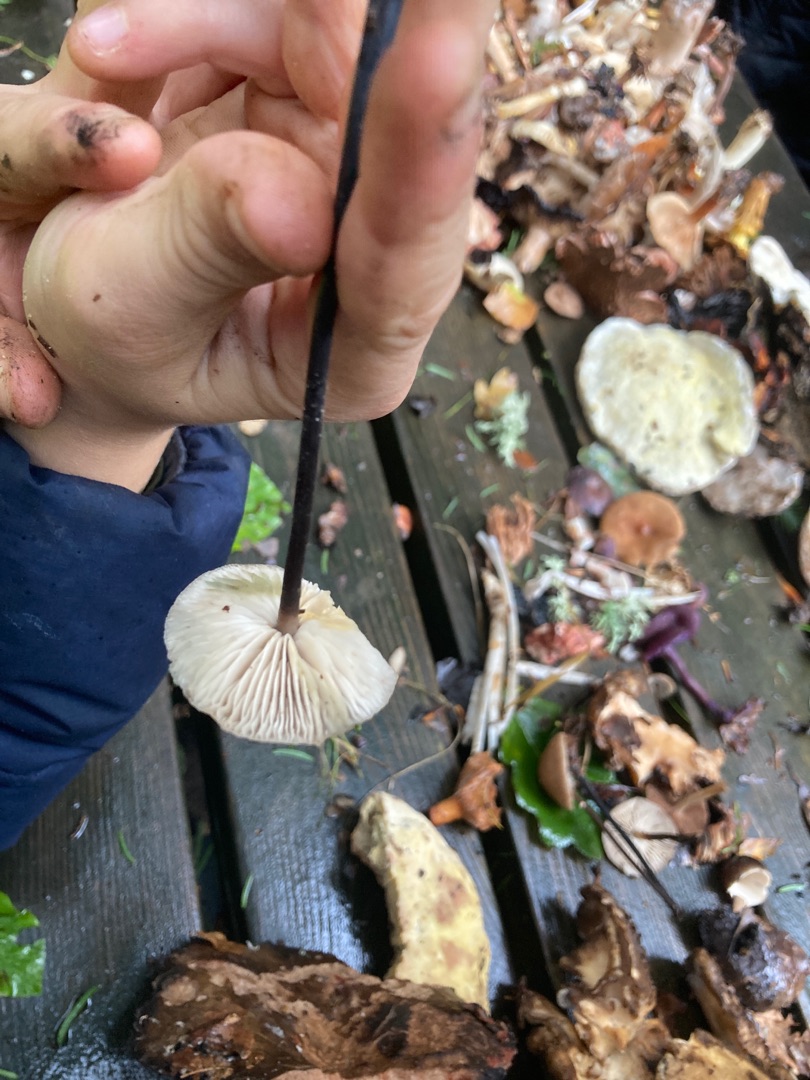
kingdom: Fungi
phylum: Basidiomycota
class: Agaricomycetes
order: Agaricales
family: Omphalotaceae
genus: Mycetinis
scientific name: Mycetinis alliaceus
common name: Stor løghat
